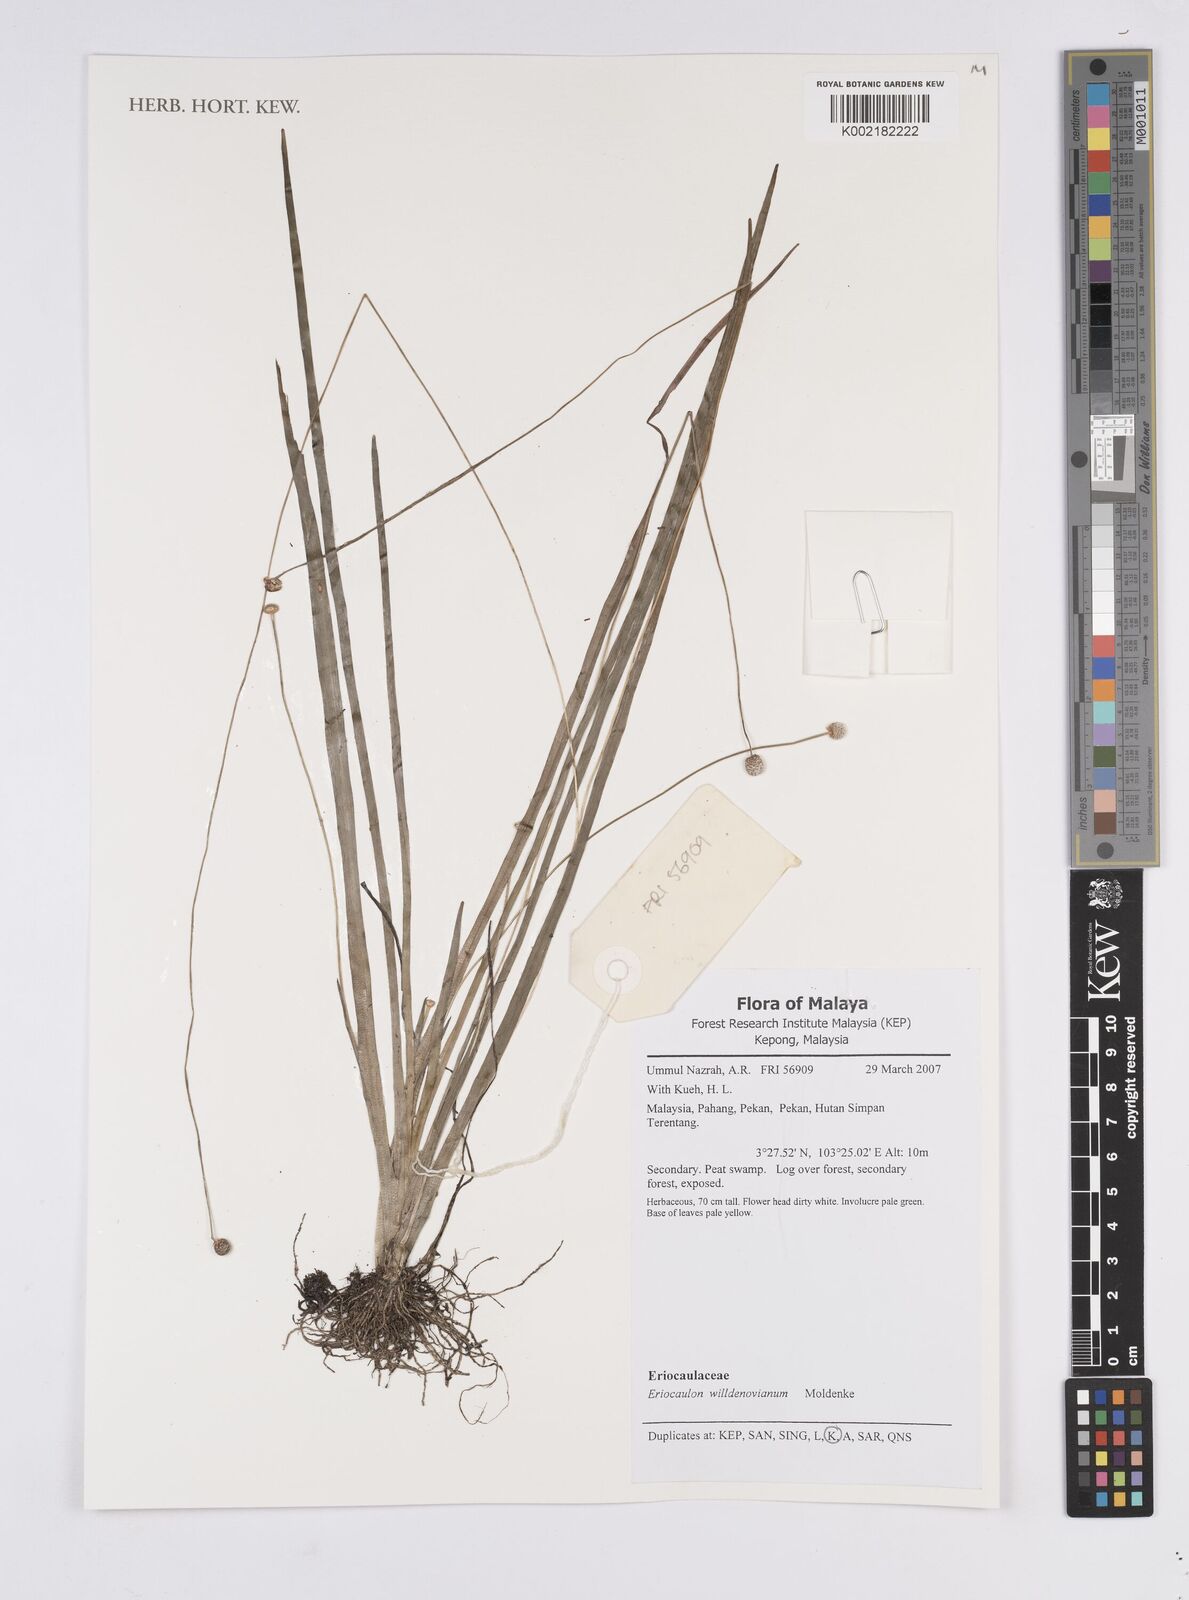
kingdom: Plantae
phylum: Tracheophyta
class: Liliopsida
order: Poales
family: Eriocaulaceae
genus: Eriocaulon
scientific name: Eriocaulon willdenovianum
